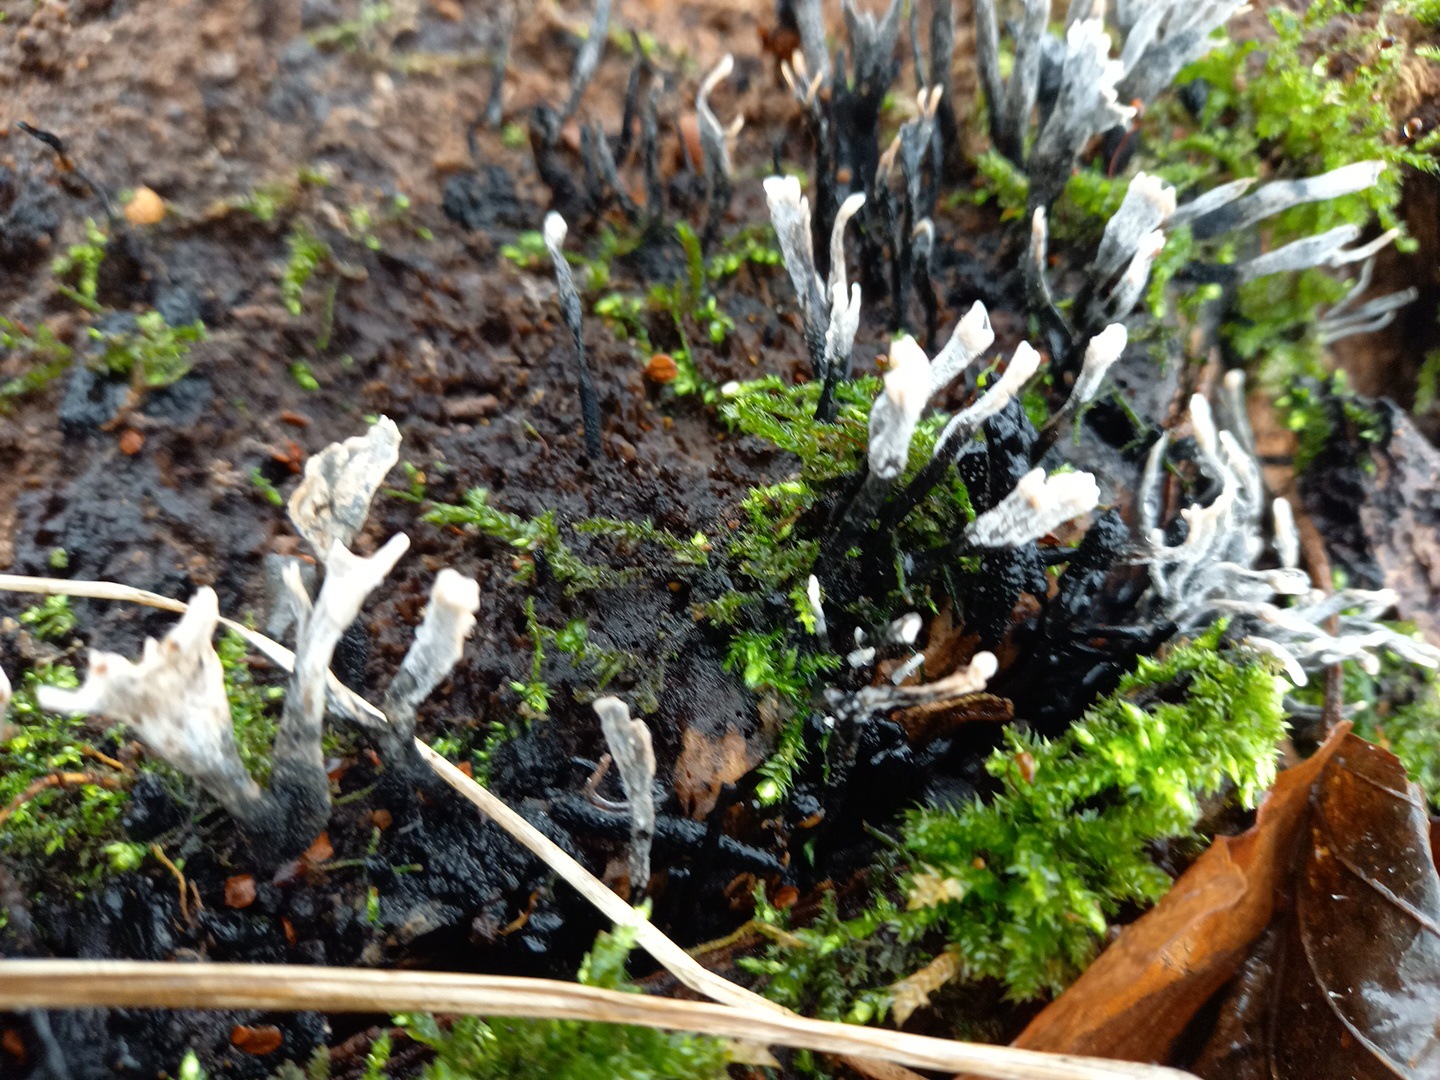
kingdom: Fungi
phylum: Ascomycota
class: Sordariomycetes
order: Xylariales
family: Xylariaceae
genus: Xylaria
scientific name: Xylaria hypoxylon
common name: grenet stødsvamp
